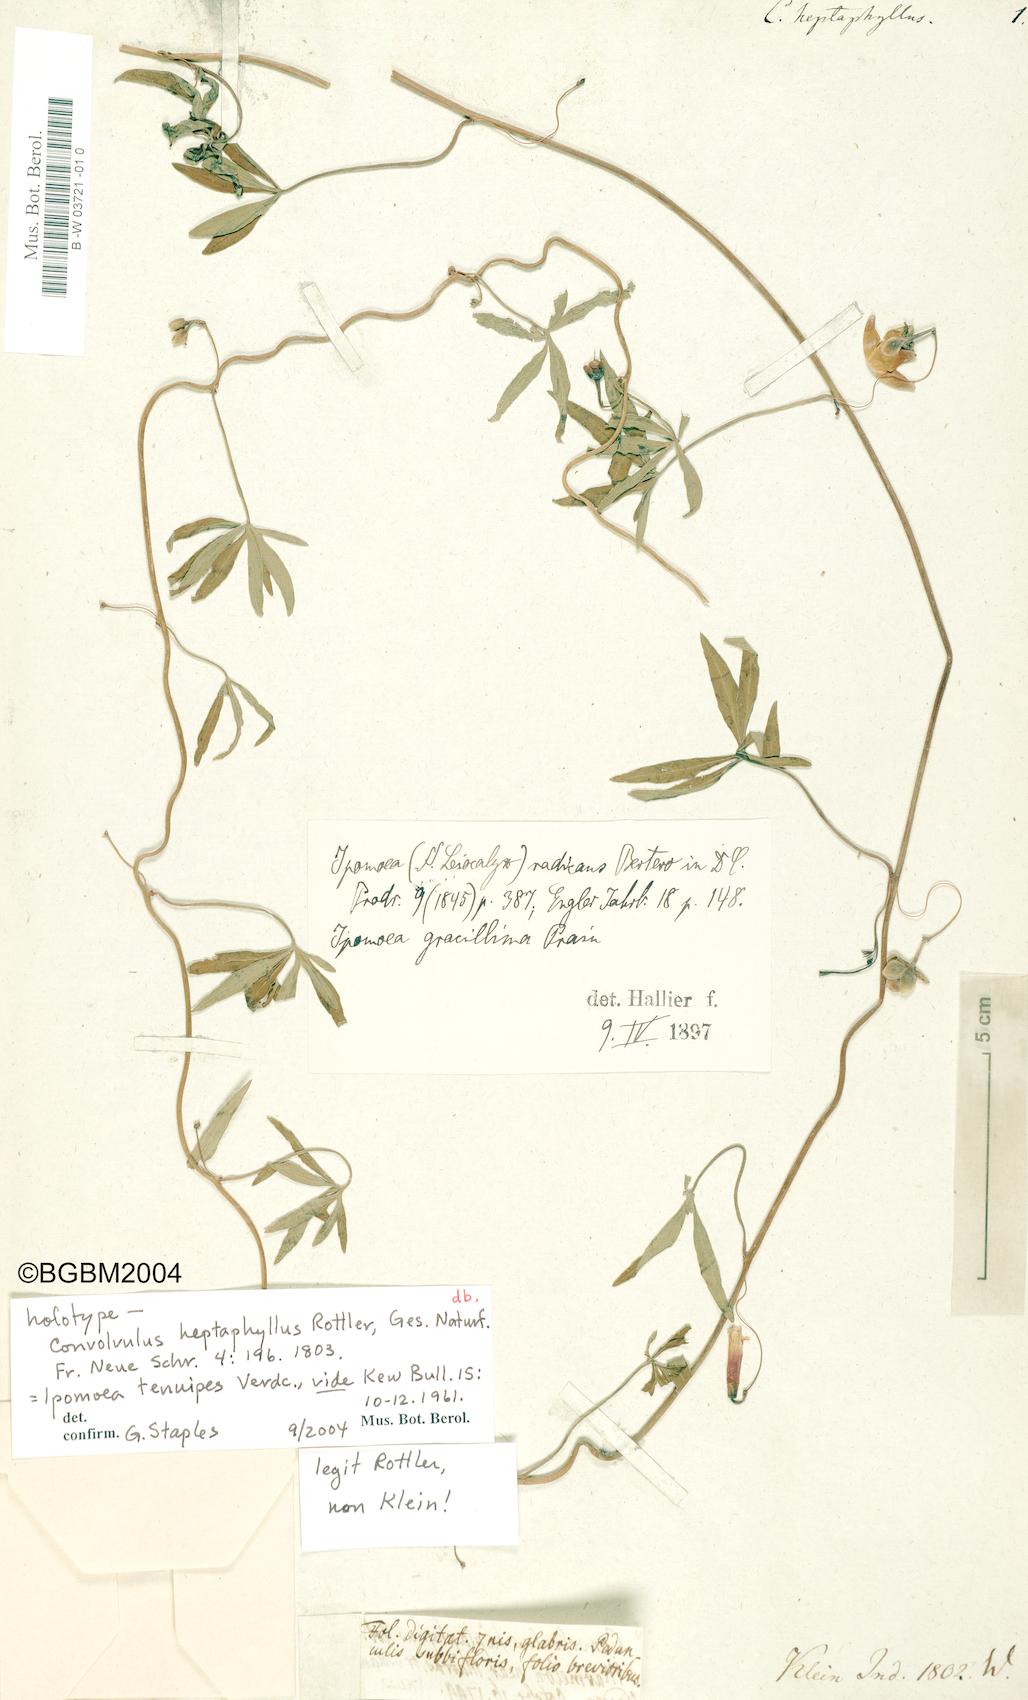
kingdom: Plantae
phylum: Tracheophyta
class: Magnoliopsida
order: Solanales
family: Convolvulaceae
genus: Ipomoea
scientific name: Ipomoea
